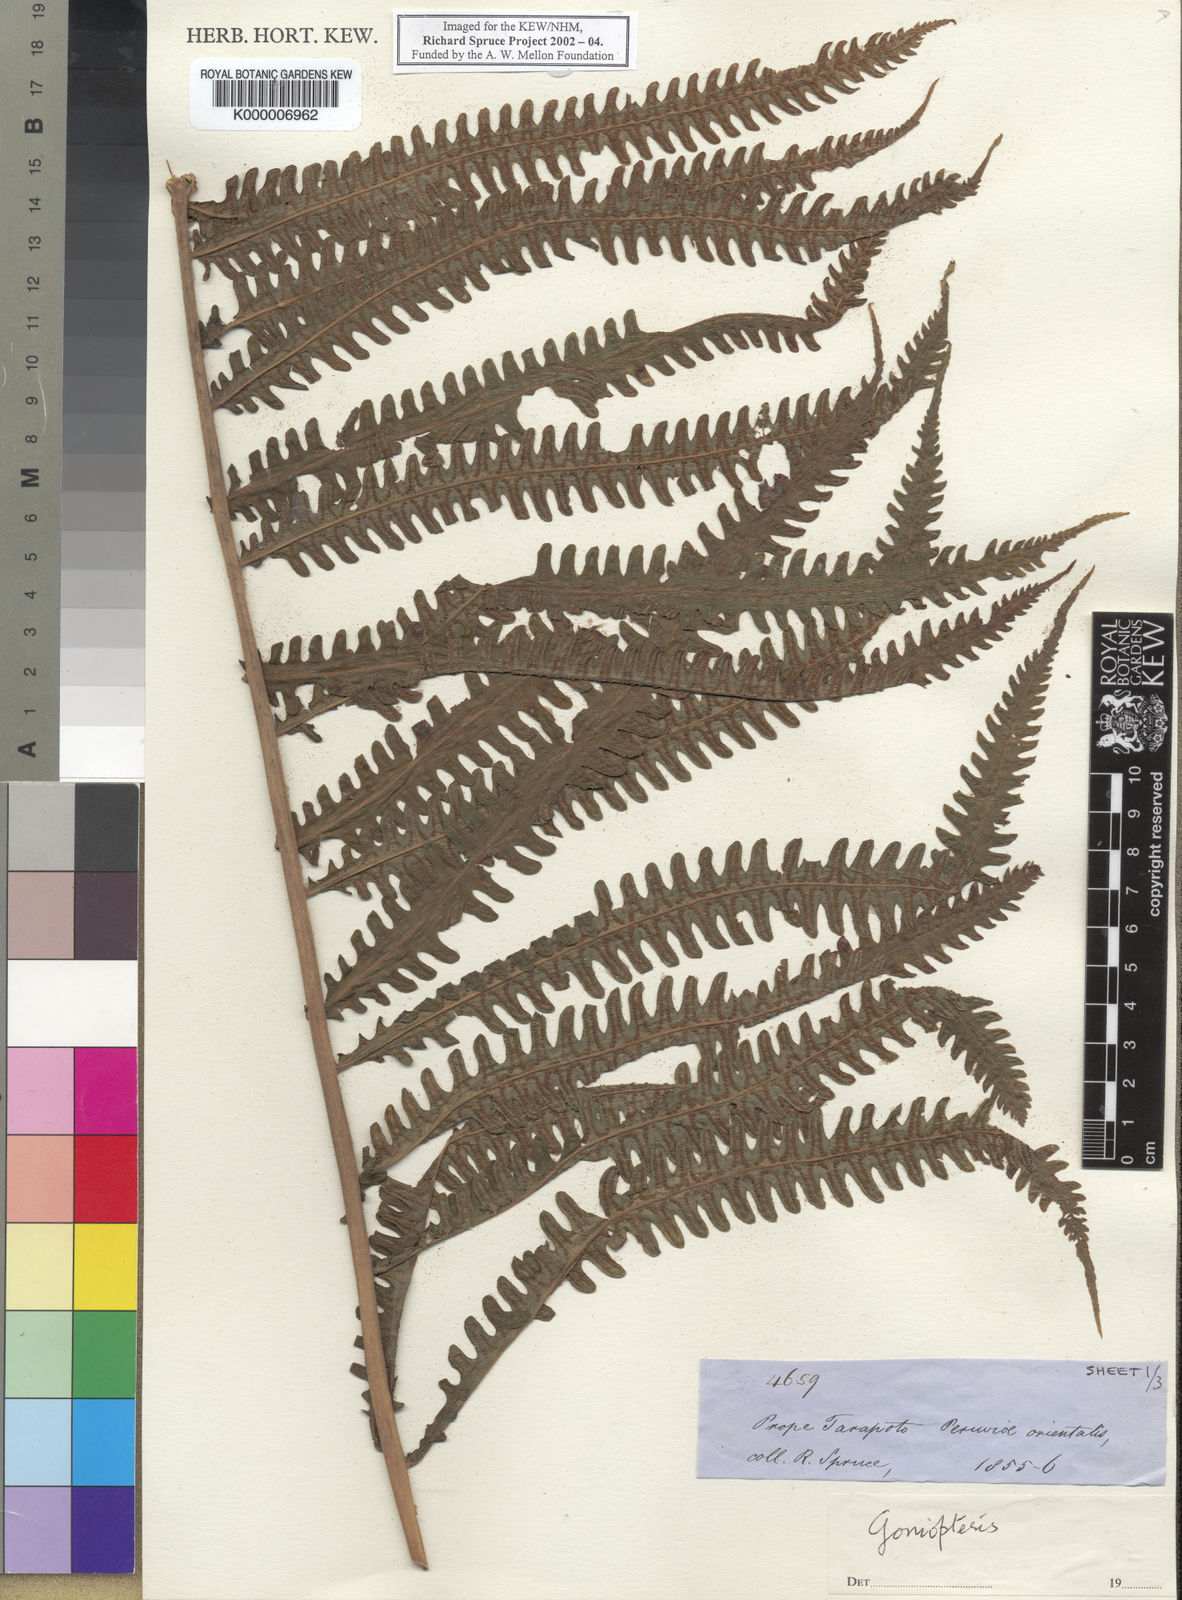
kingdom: Plantae
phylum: Tracheophyta
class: Polypodiopsida
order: Polypodiales
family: Thelypteridaceae
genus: Goniopteris
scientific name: Goniopteris biolleyi
